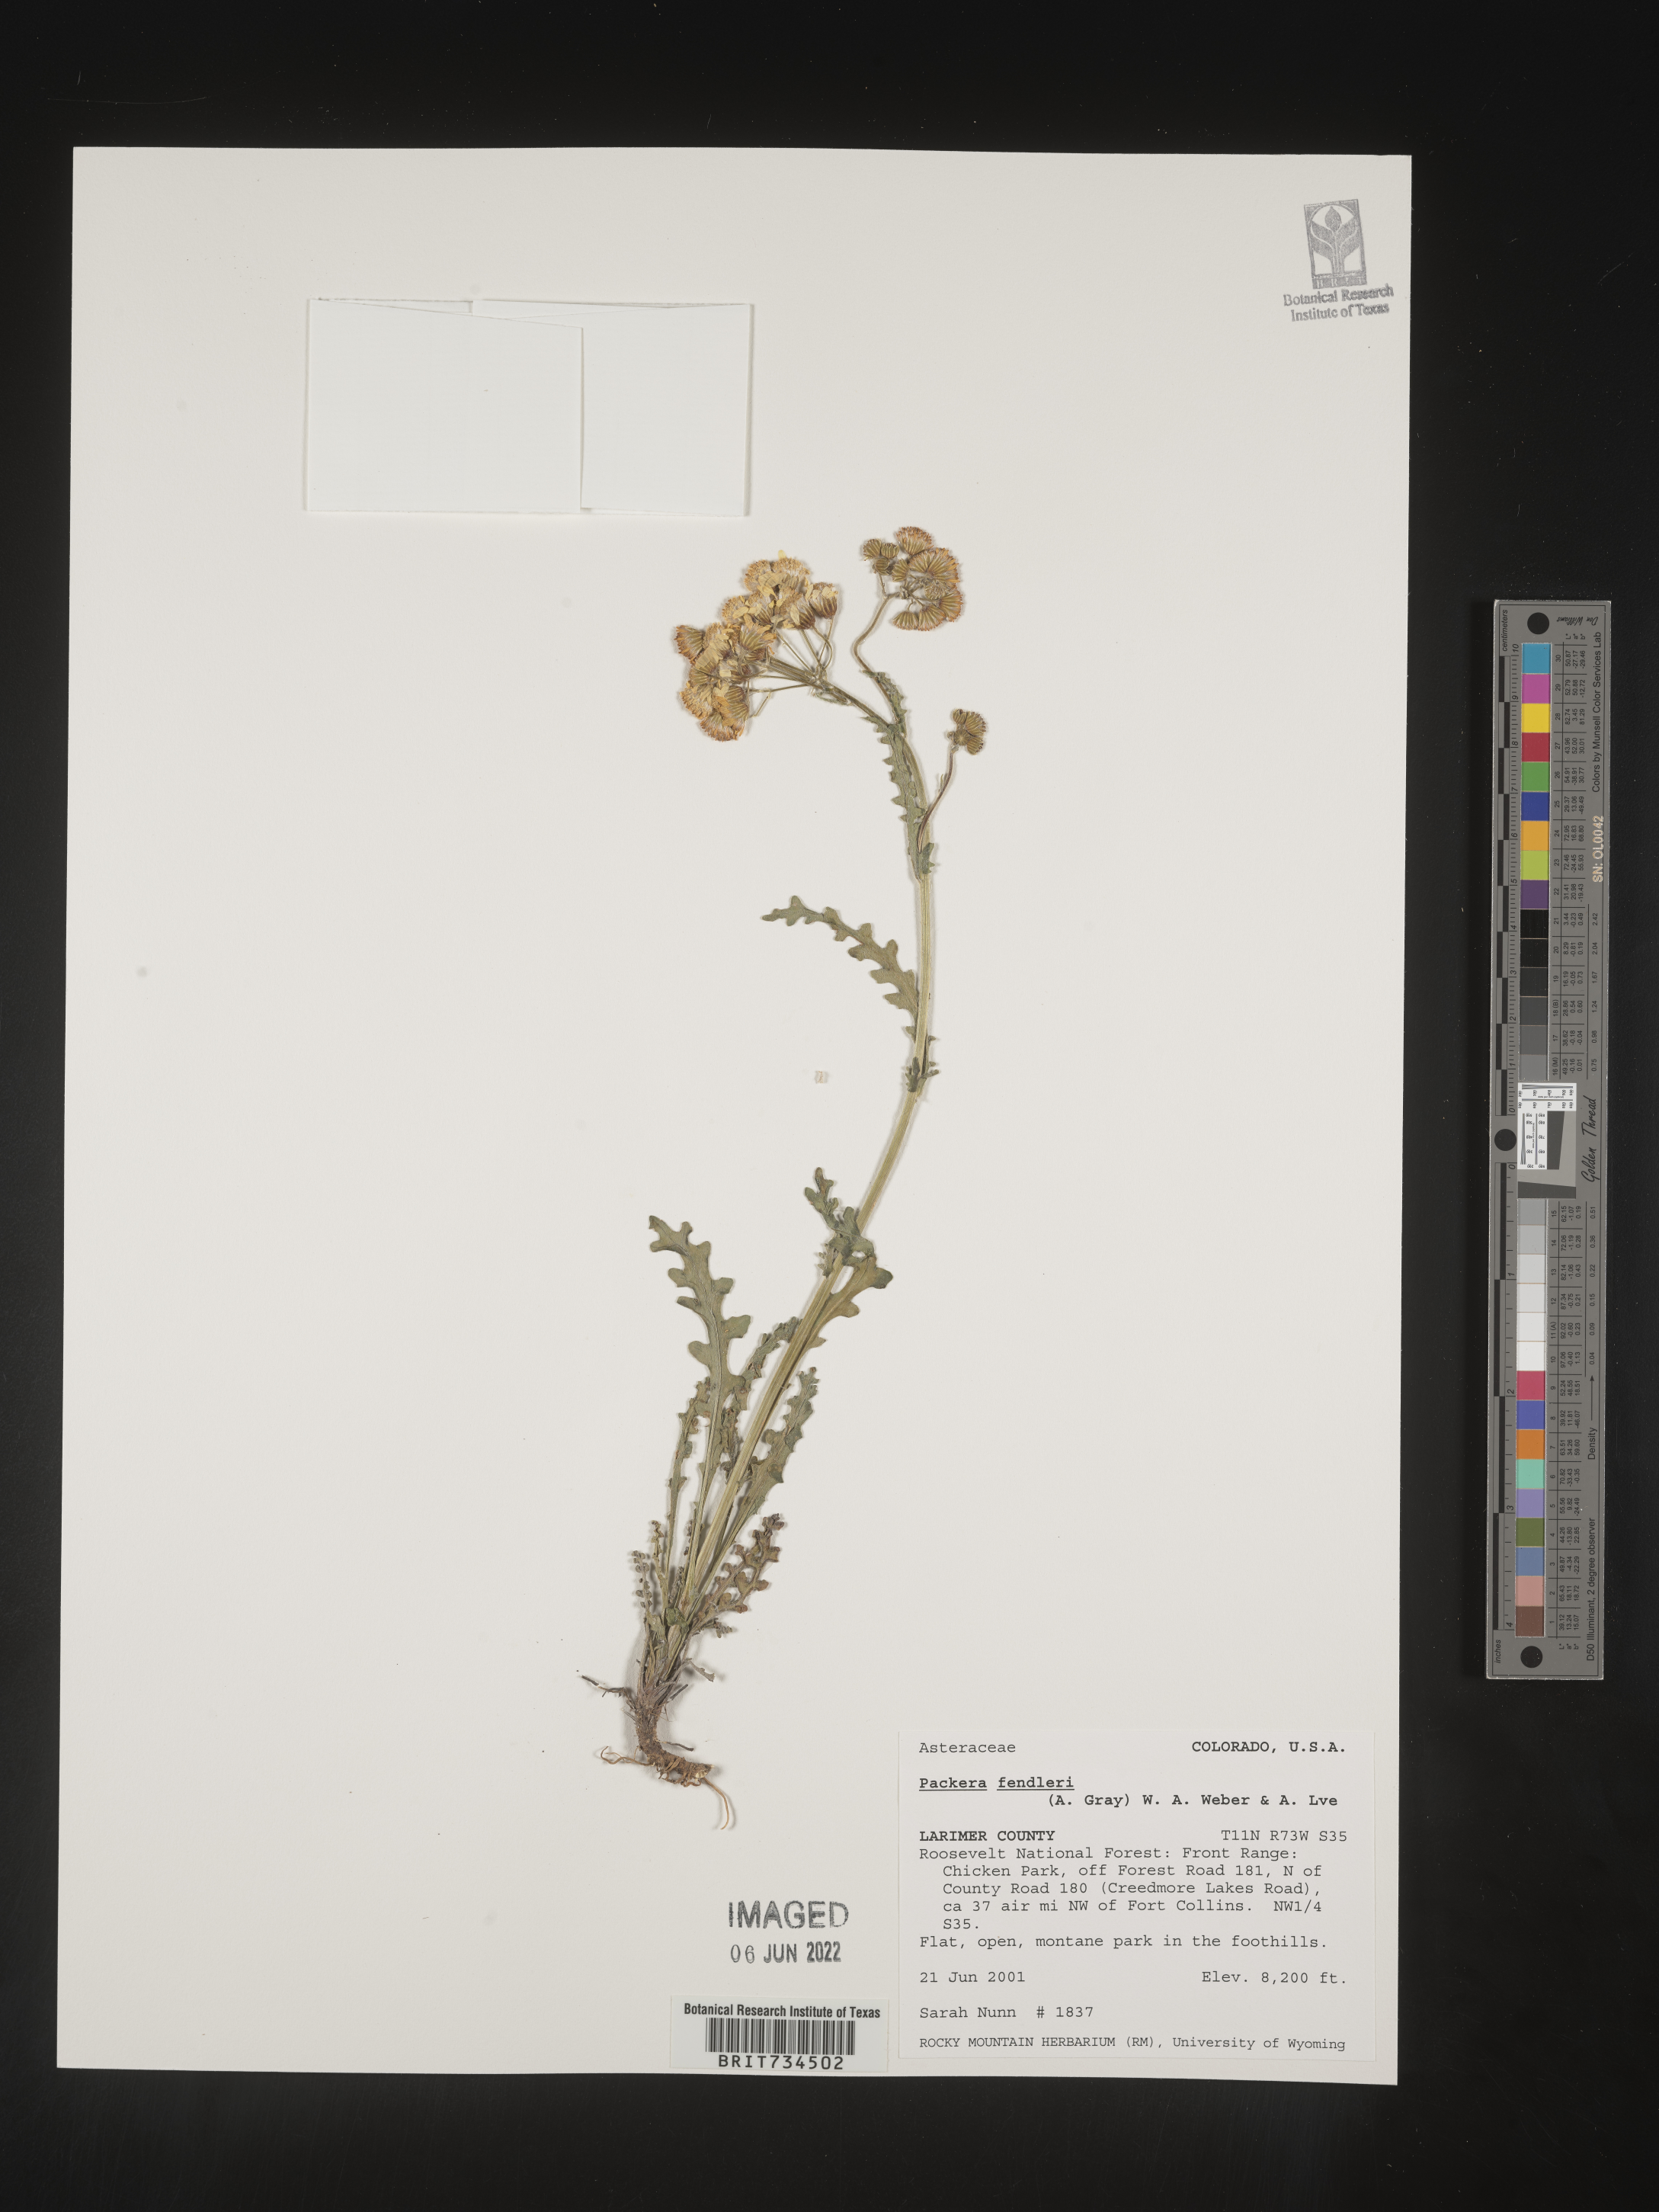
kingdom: Plantae
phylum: Tracheophyta
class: Magnoliopsida
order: Asterales
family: Asteraceae
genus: Packera
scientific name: Packera fendleri
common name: Notch-leaf butterweed
